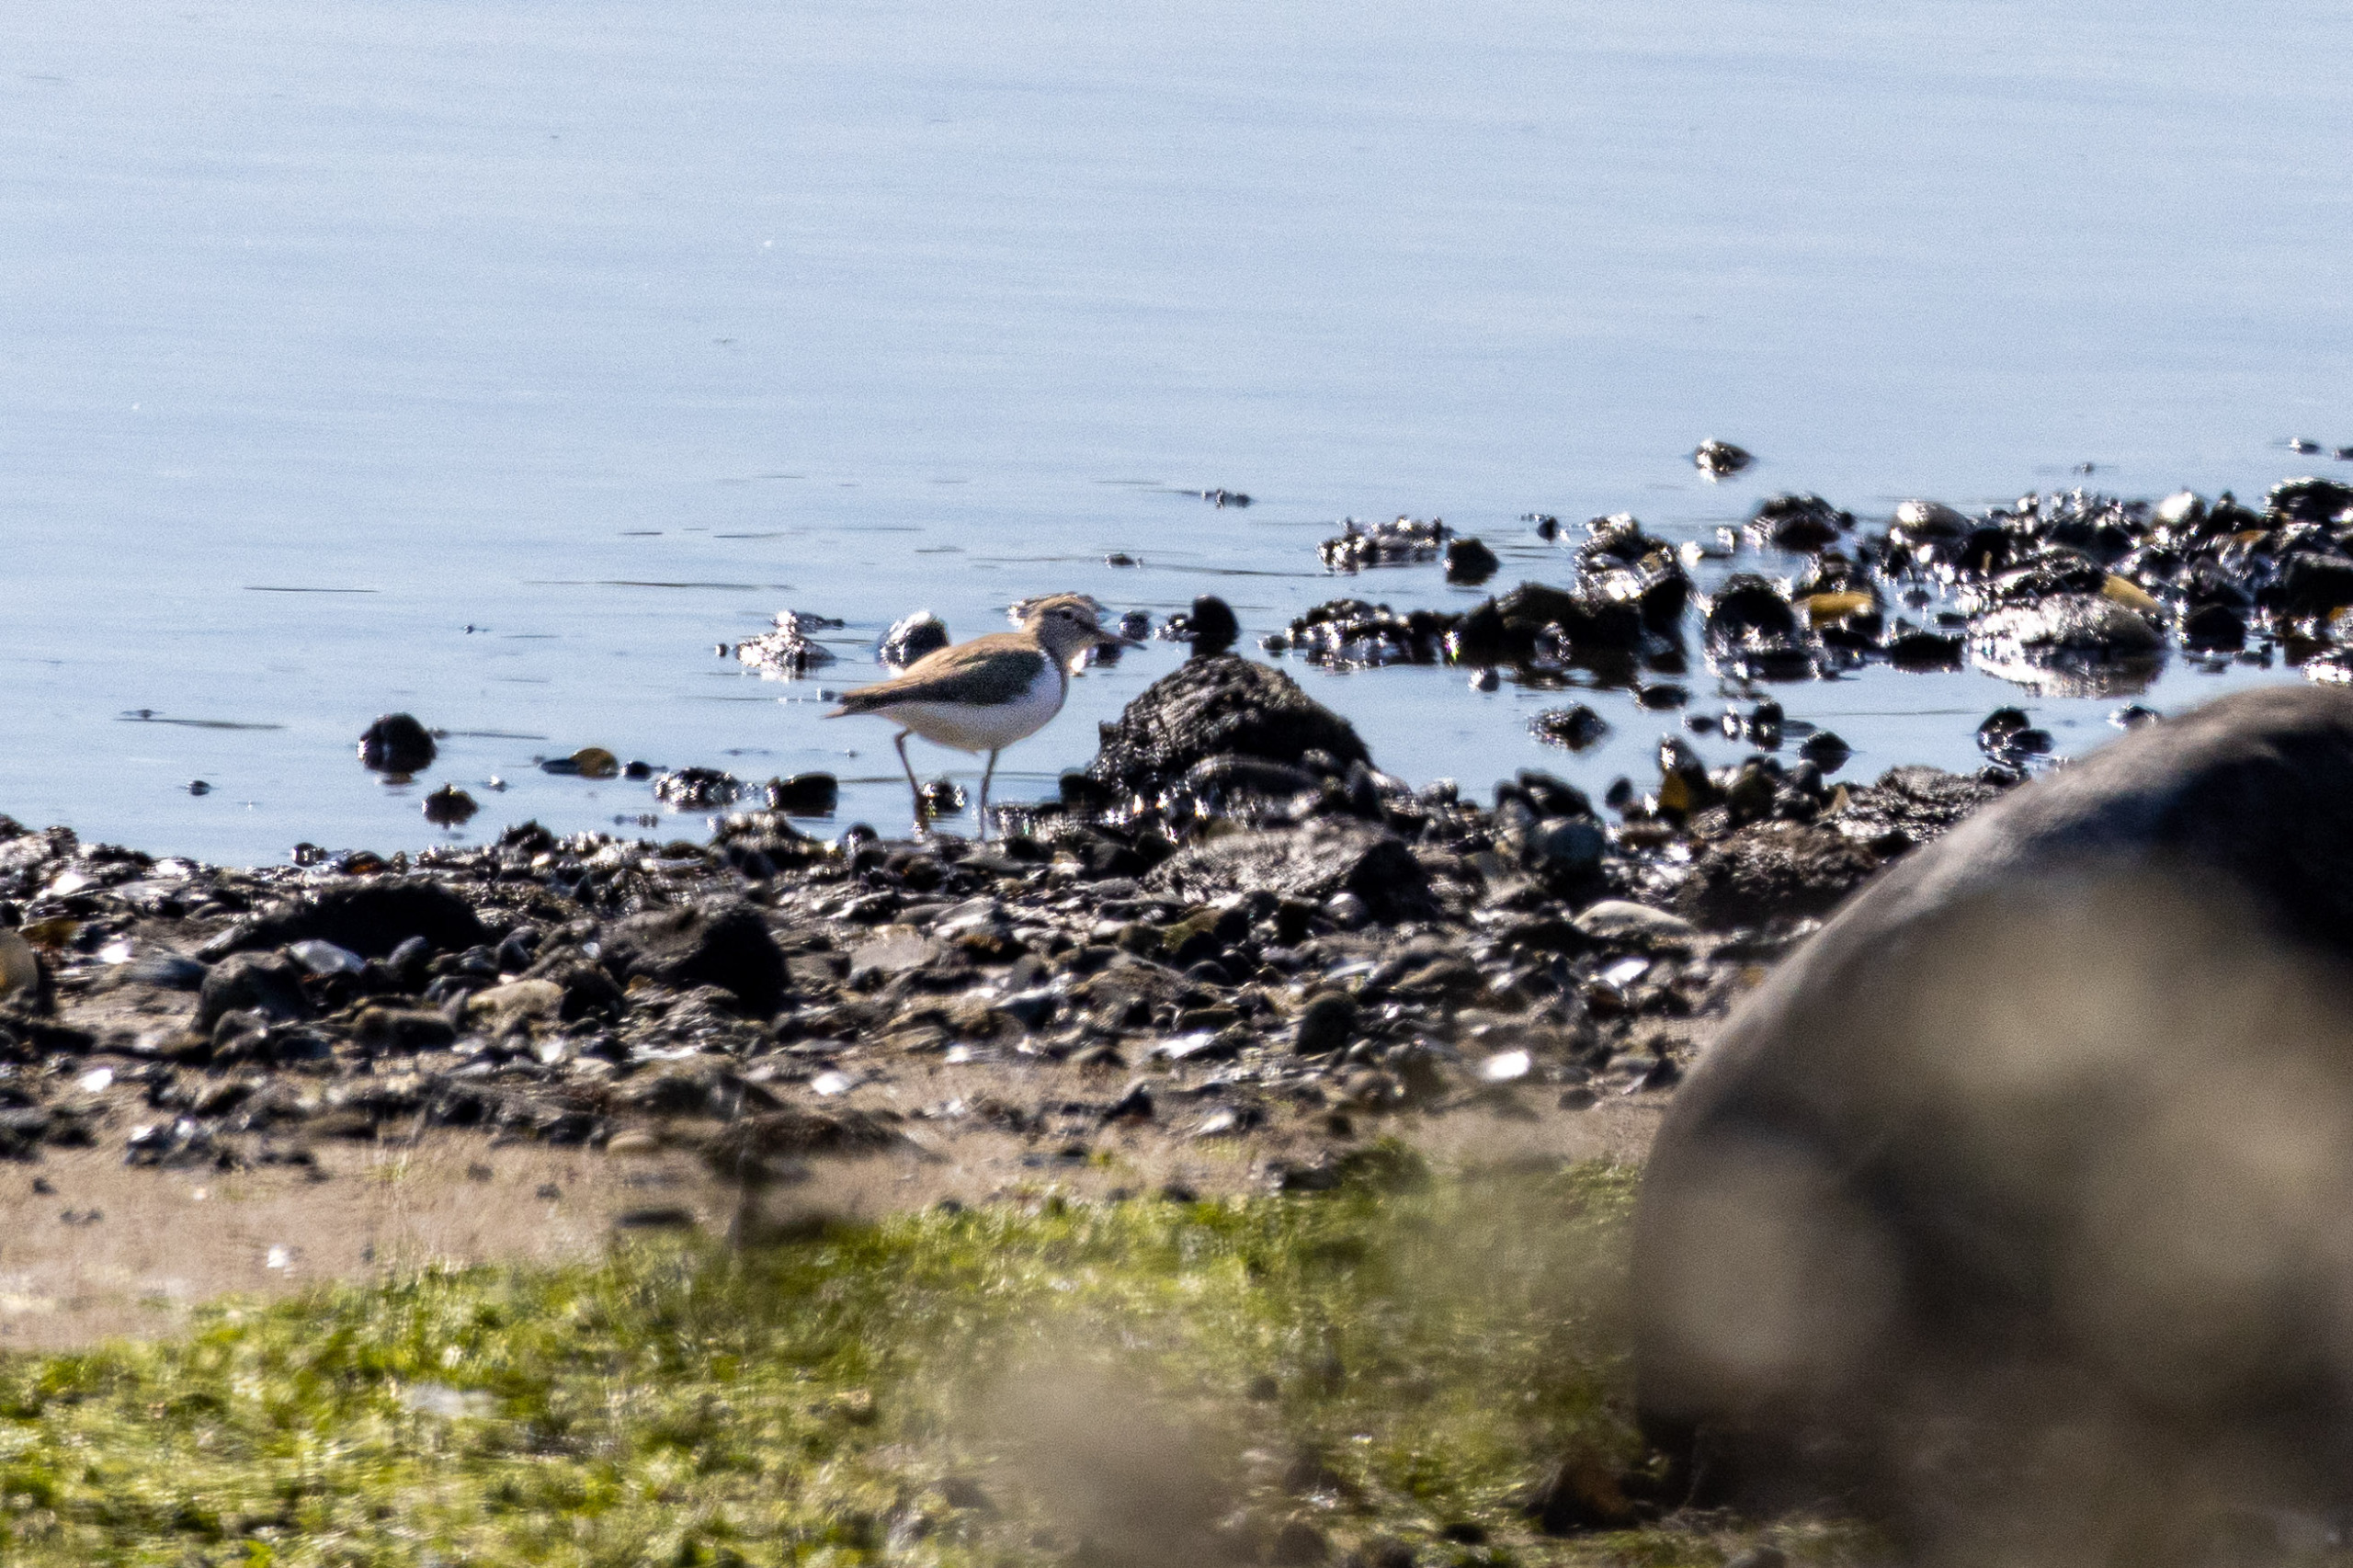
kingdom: Animalia
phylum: Chordata
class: Aves
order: Charadriiformes
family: Scolopacidae
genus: Actitis
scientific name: Actitis hypoleucos
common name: Mudderklire
